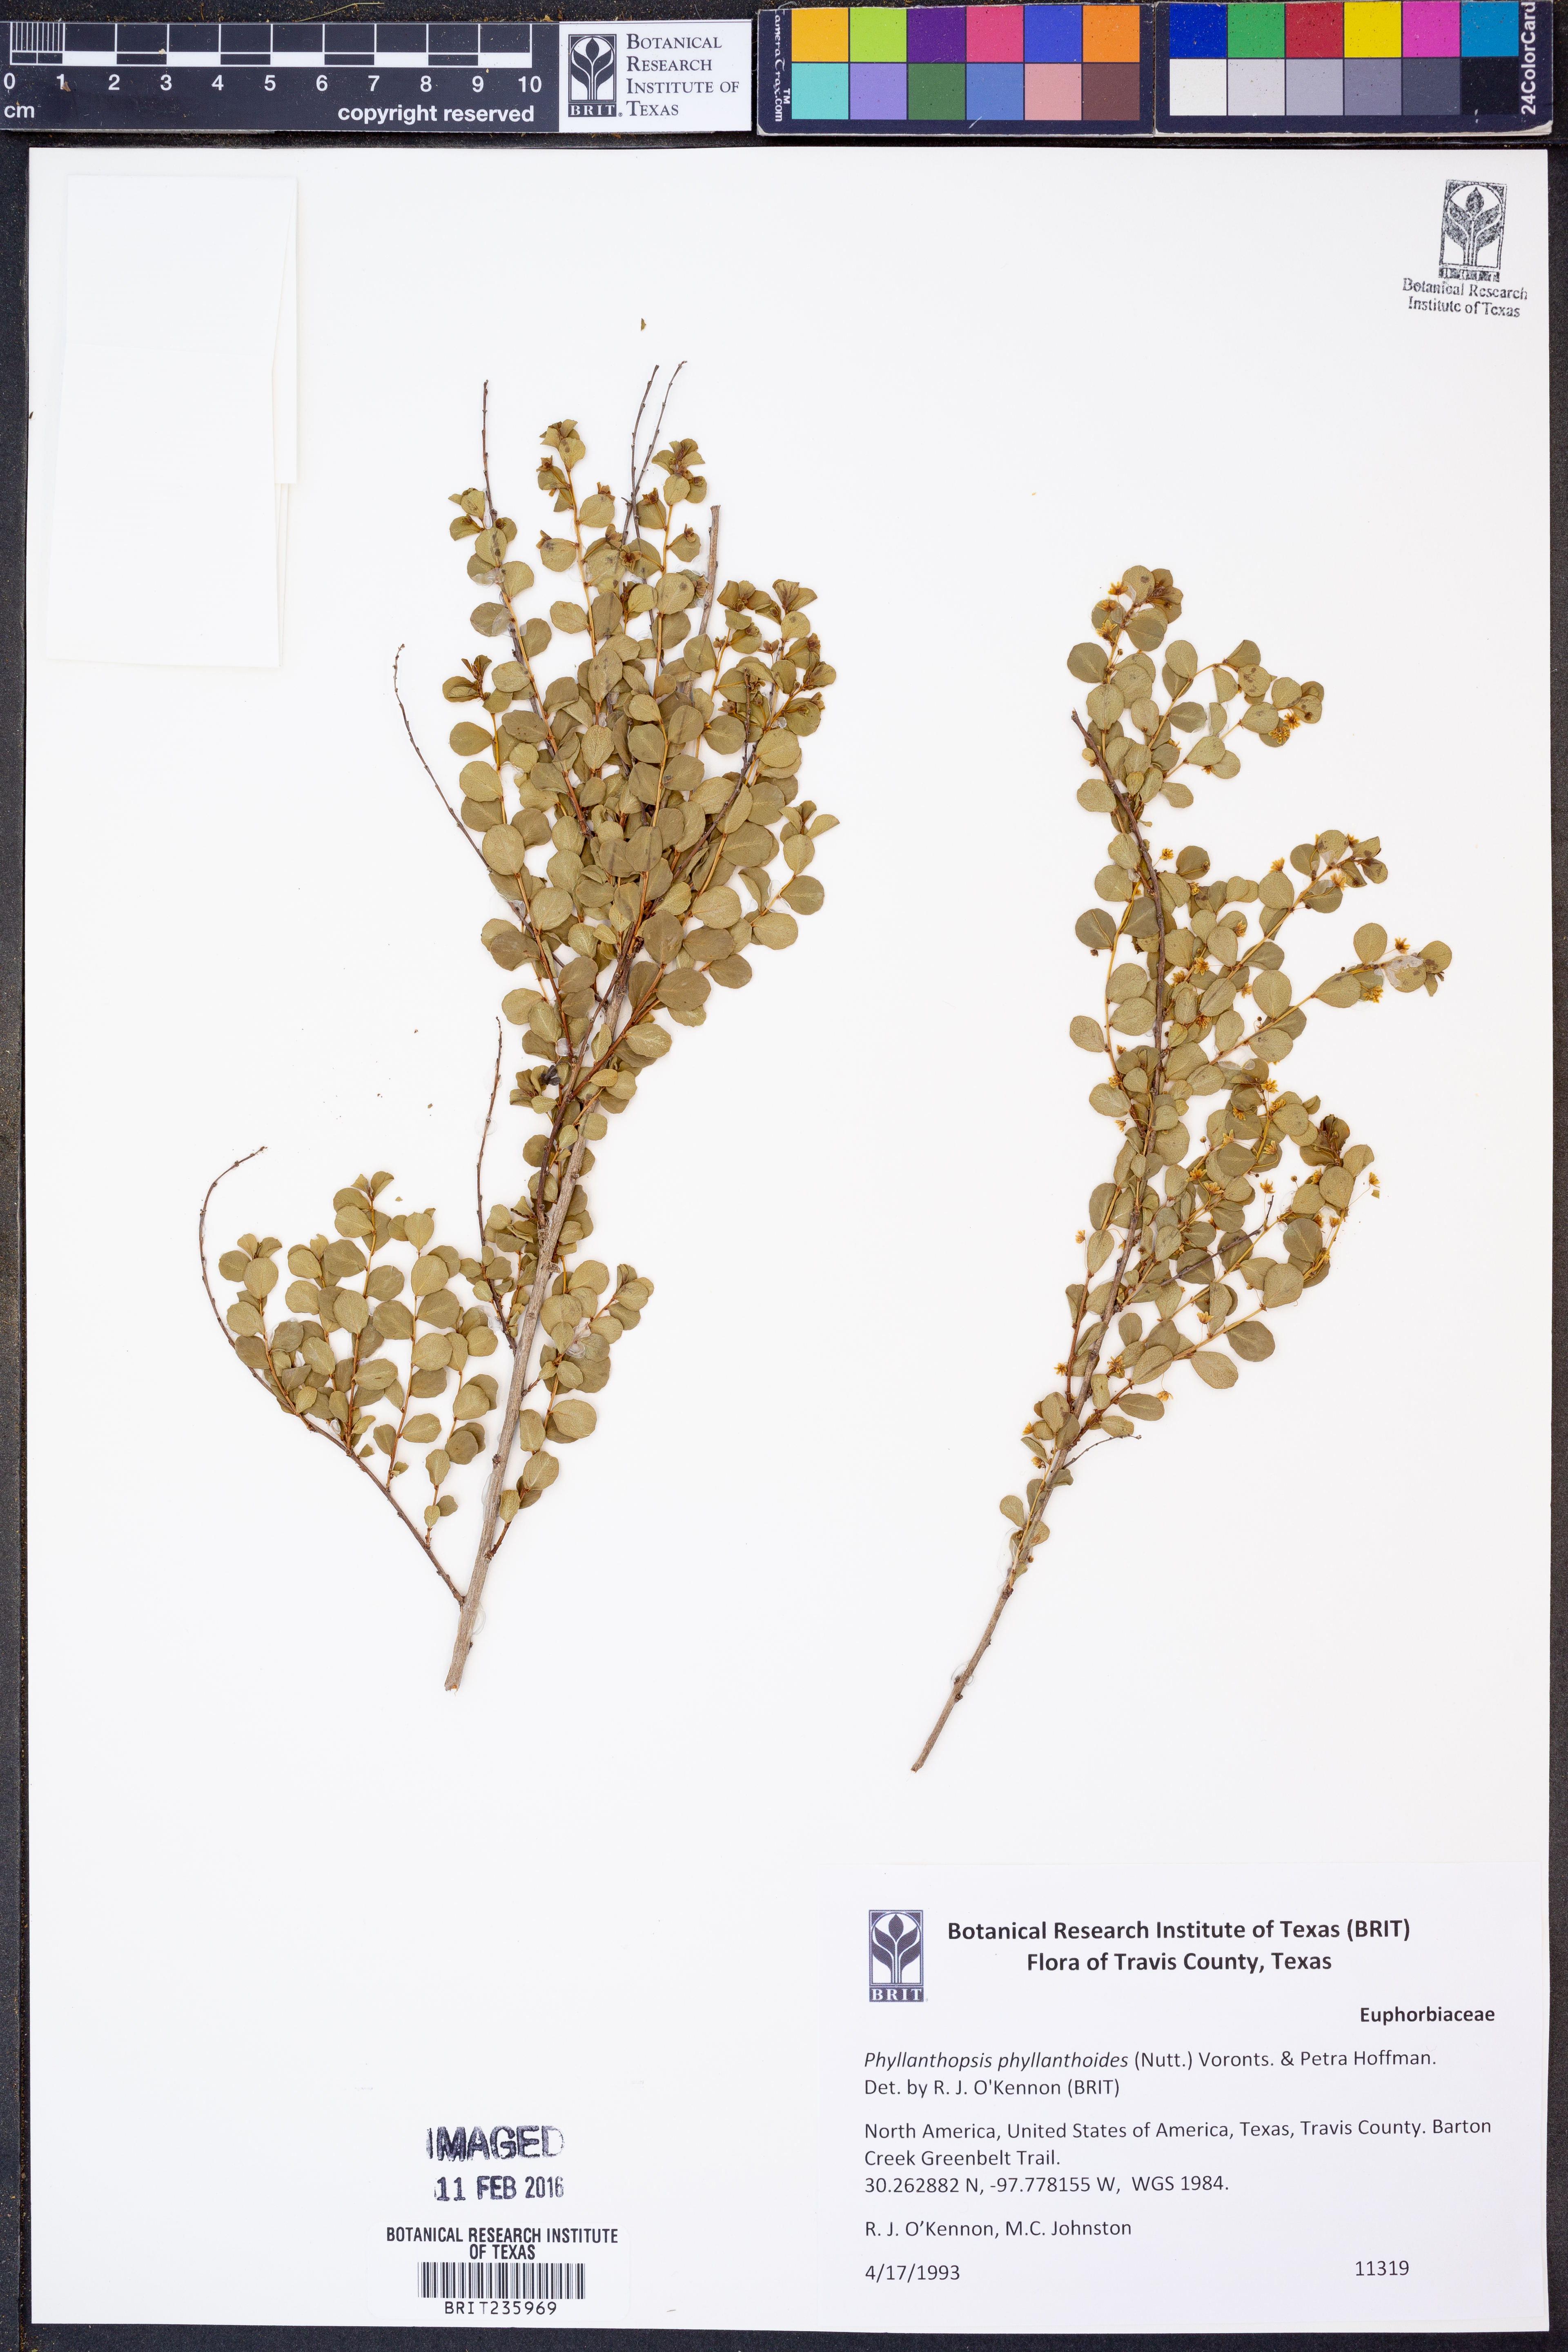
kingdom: Plantae
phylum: Tracheophyta
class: Magnoliopsida
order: Malpighiales
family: Phyllanthaceae
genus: Phyllanthopsis
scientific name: Phyllanthopsis phyllanthoides
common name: Missouri maidenbush
